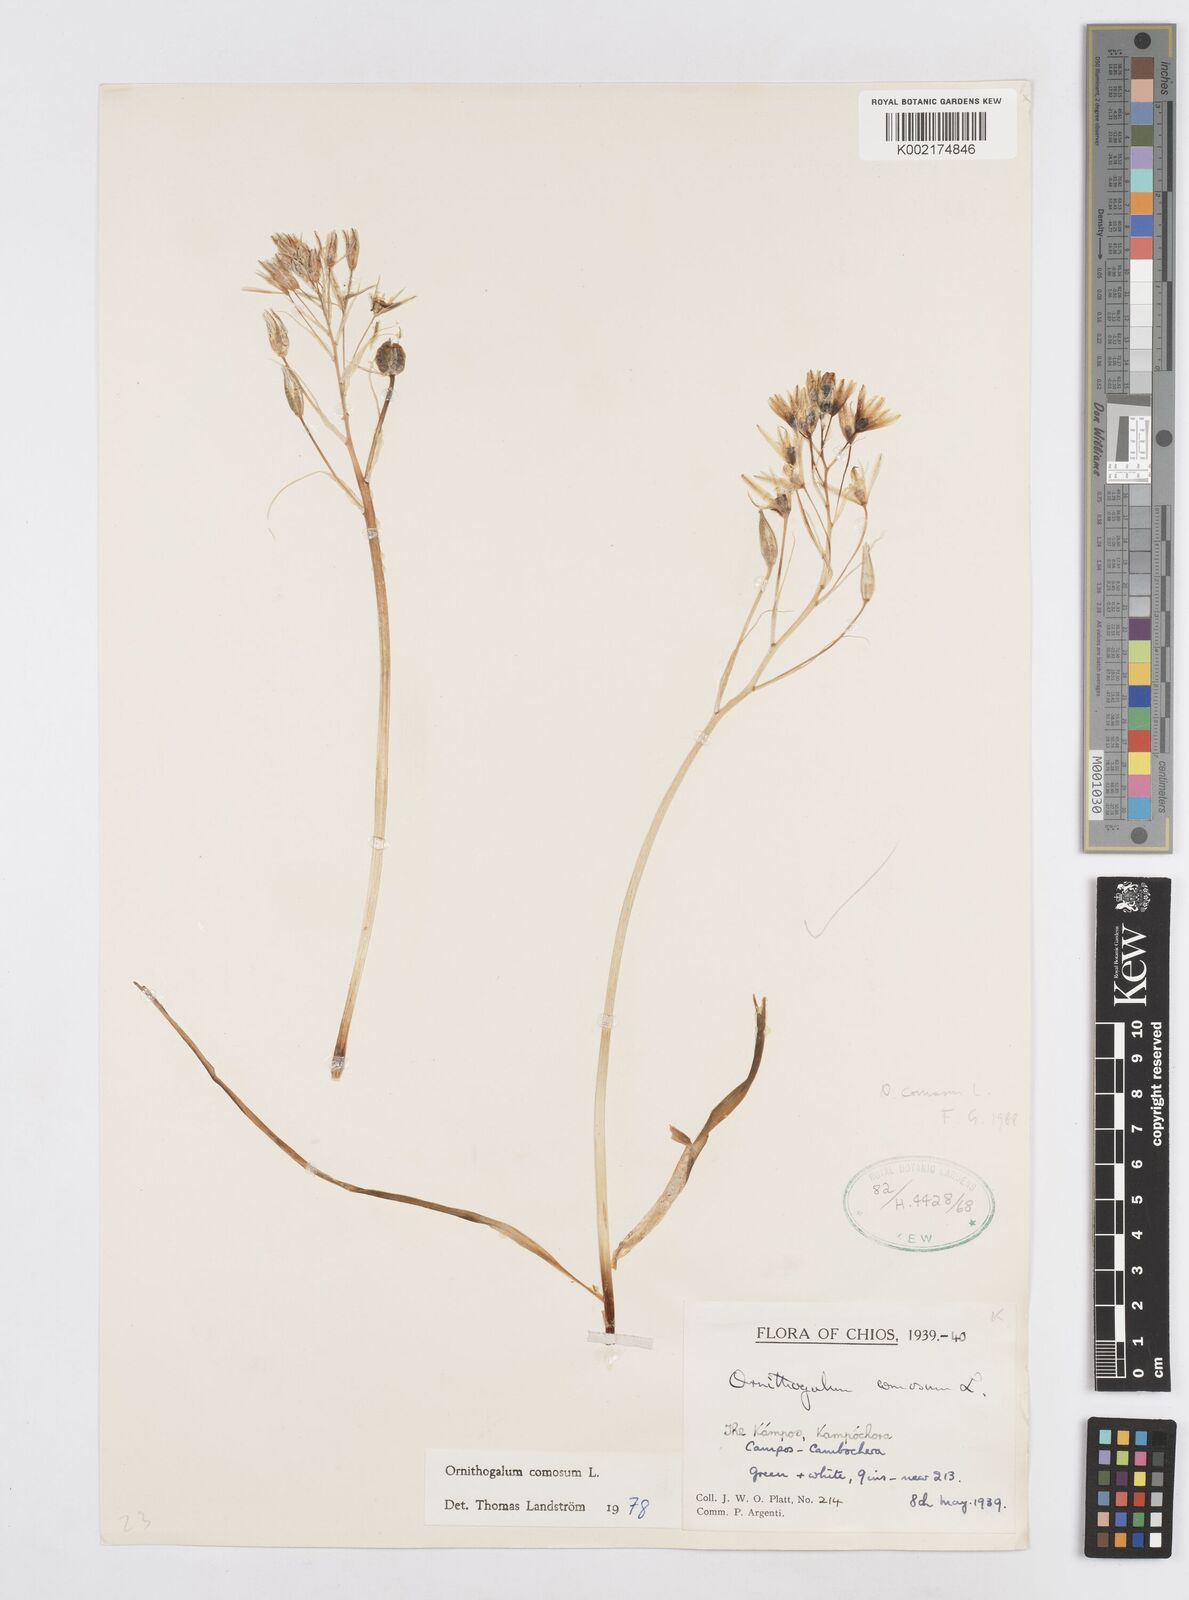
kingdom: Plantae
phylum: Tracheophyta
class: Liliopsida
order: Asparagales
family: Asparagaceae
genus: Ornithogalum
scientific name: Ornithogalum comosum
